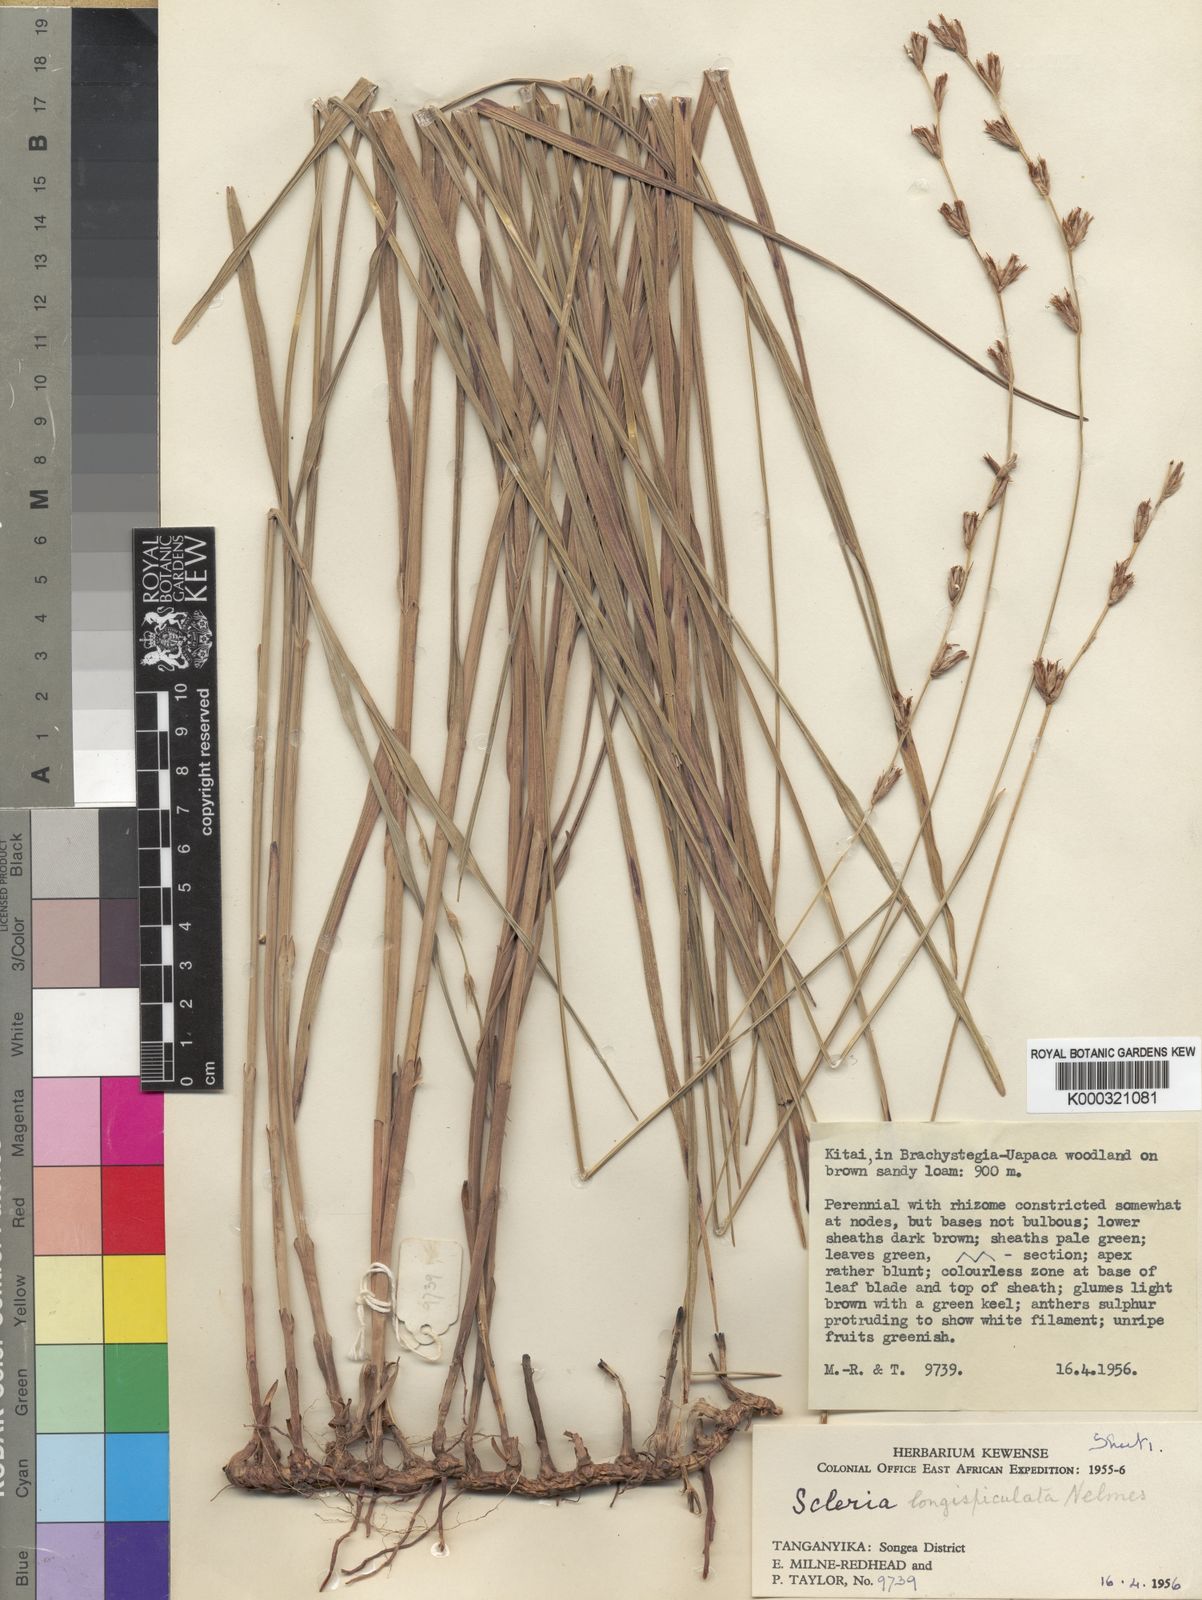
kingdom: Plantae
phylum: Tracheophyta
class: Liliopsida
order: Poales
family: Cyperaceae
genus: Scleria
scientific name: Scleria longispiculata
